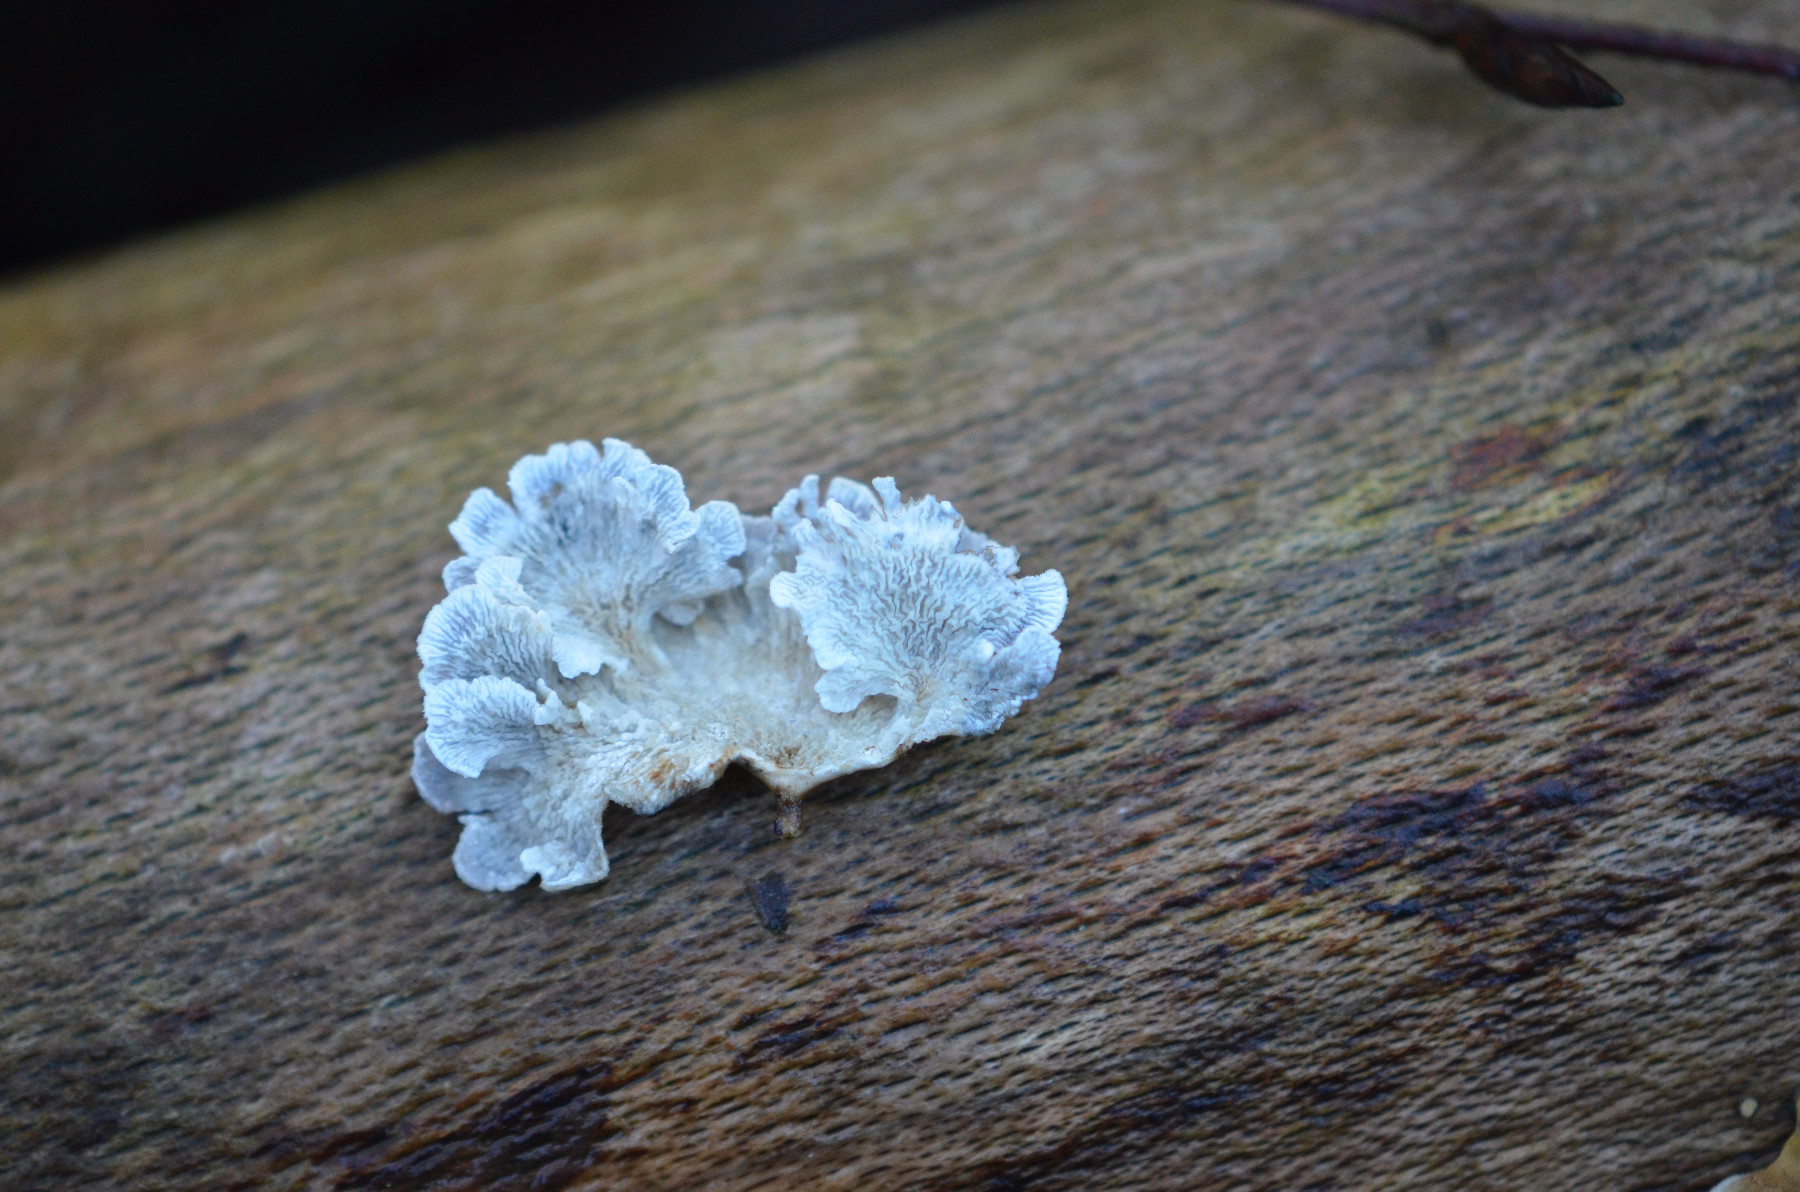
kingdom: Fungi
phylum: Basidiomycota
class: Agaricomycetes
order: Amylocorticiales
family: Amylocorticiaceae
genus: Plicaturopsis
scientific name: Plicaturopsis crispa
